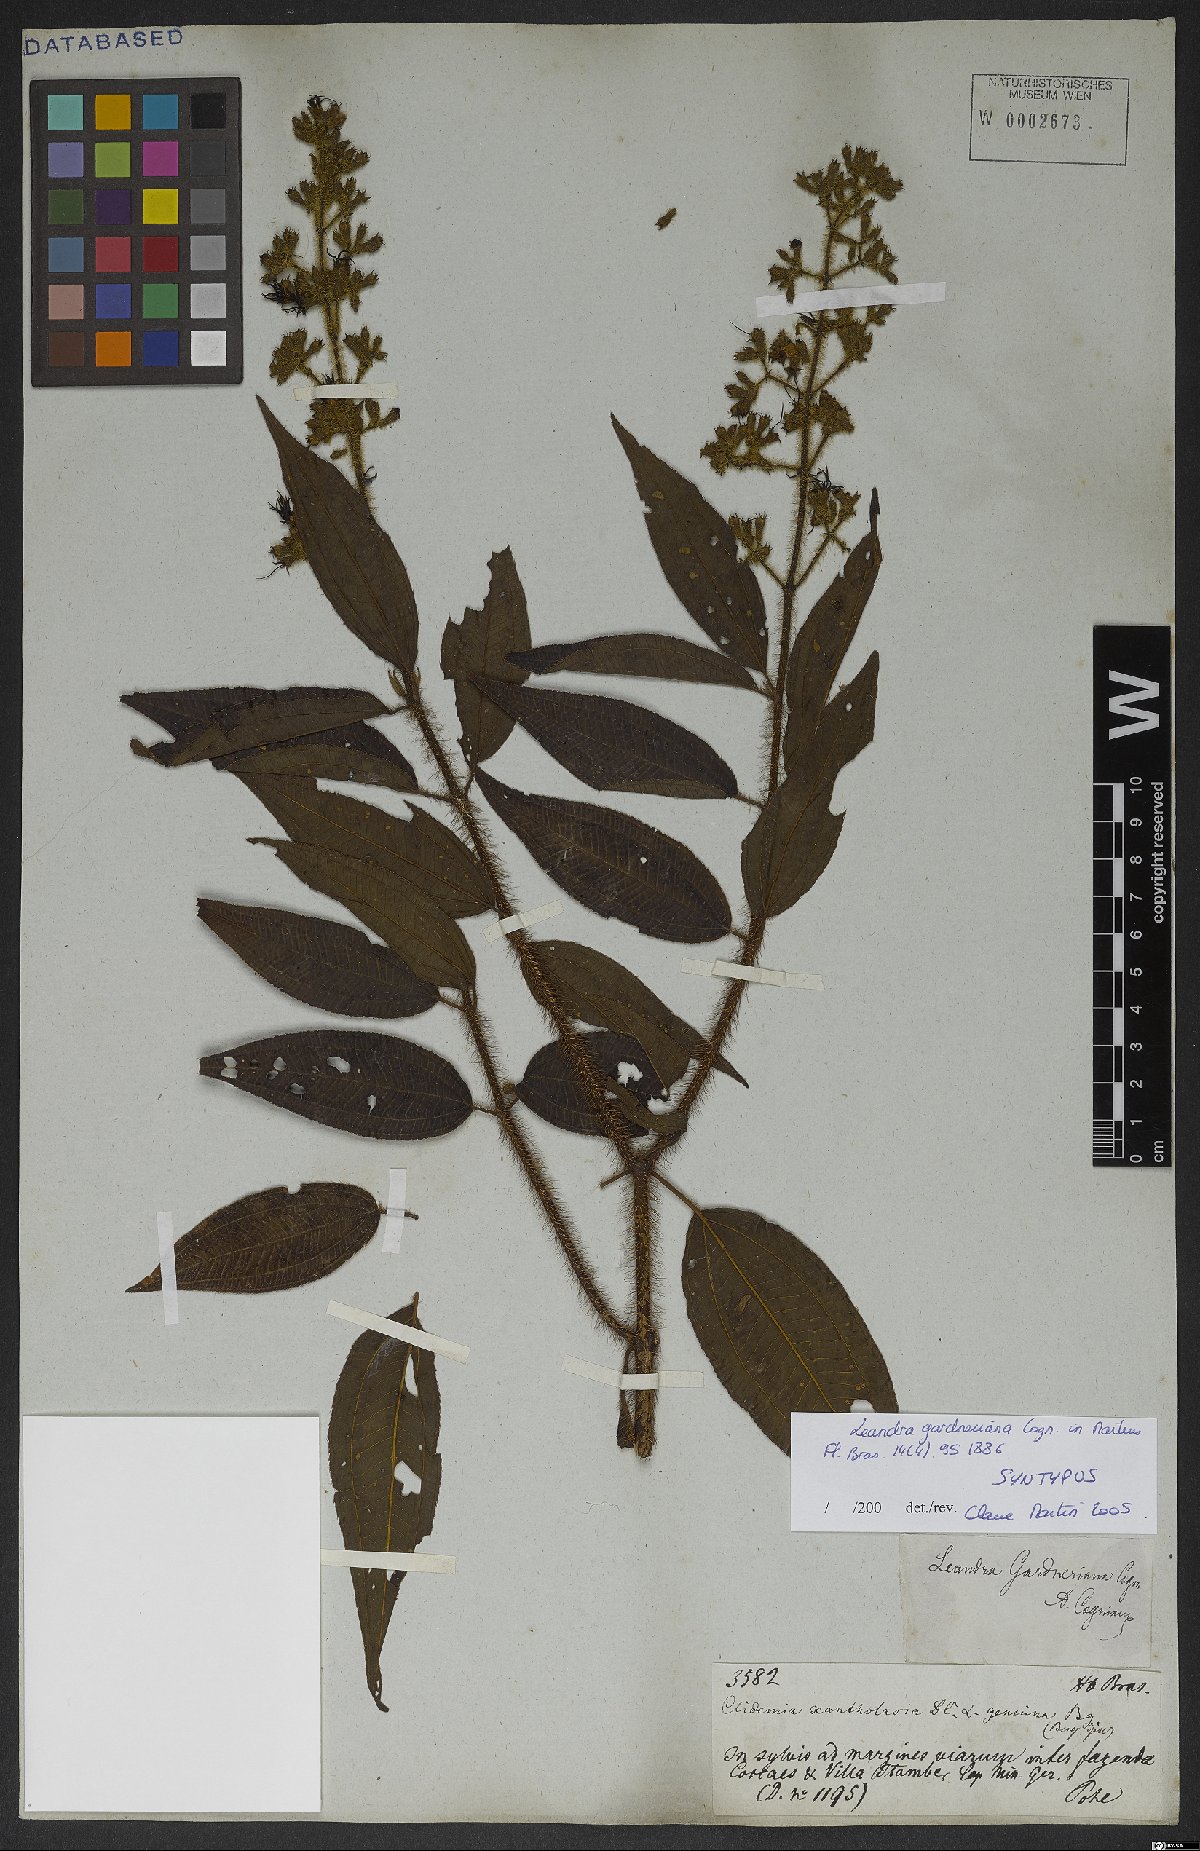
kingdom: Plantae
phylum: Tracheophyta
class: Magnoliopsida
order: Myrtales
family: Melastomataceae
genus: Miconia
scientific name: Miconia xantholasia
